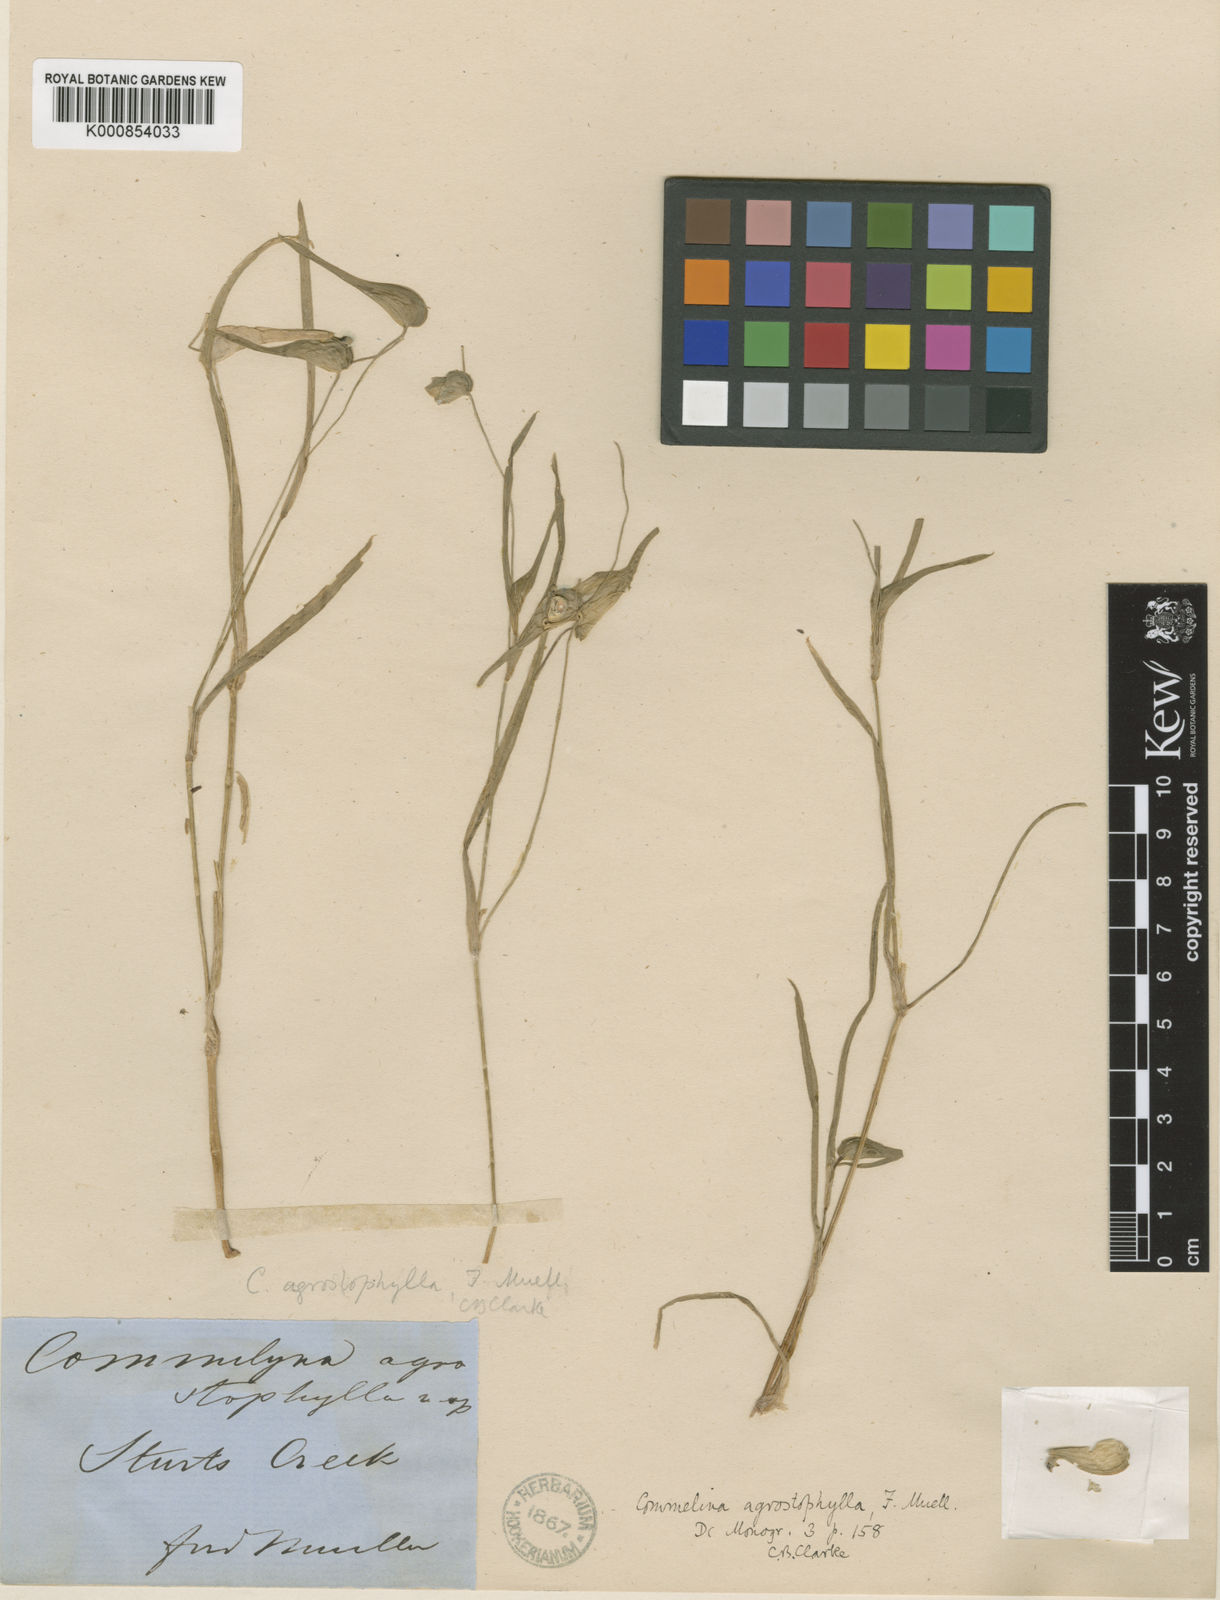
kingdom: Plantae
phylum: Tracheophyta
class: Liliopsida
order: Commelinales
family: Commelinaceae
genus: Commelina
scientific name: Commelina agrostophylla
